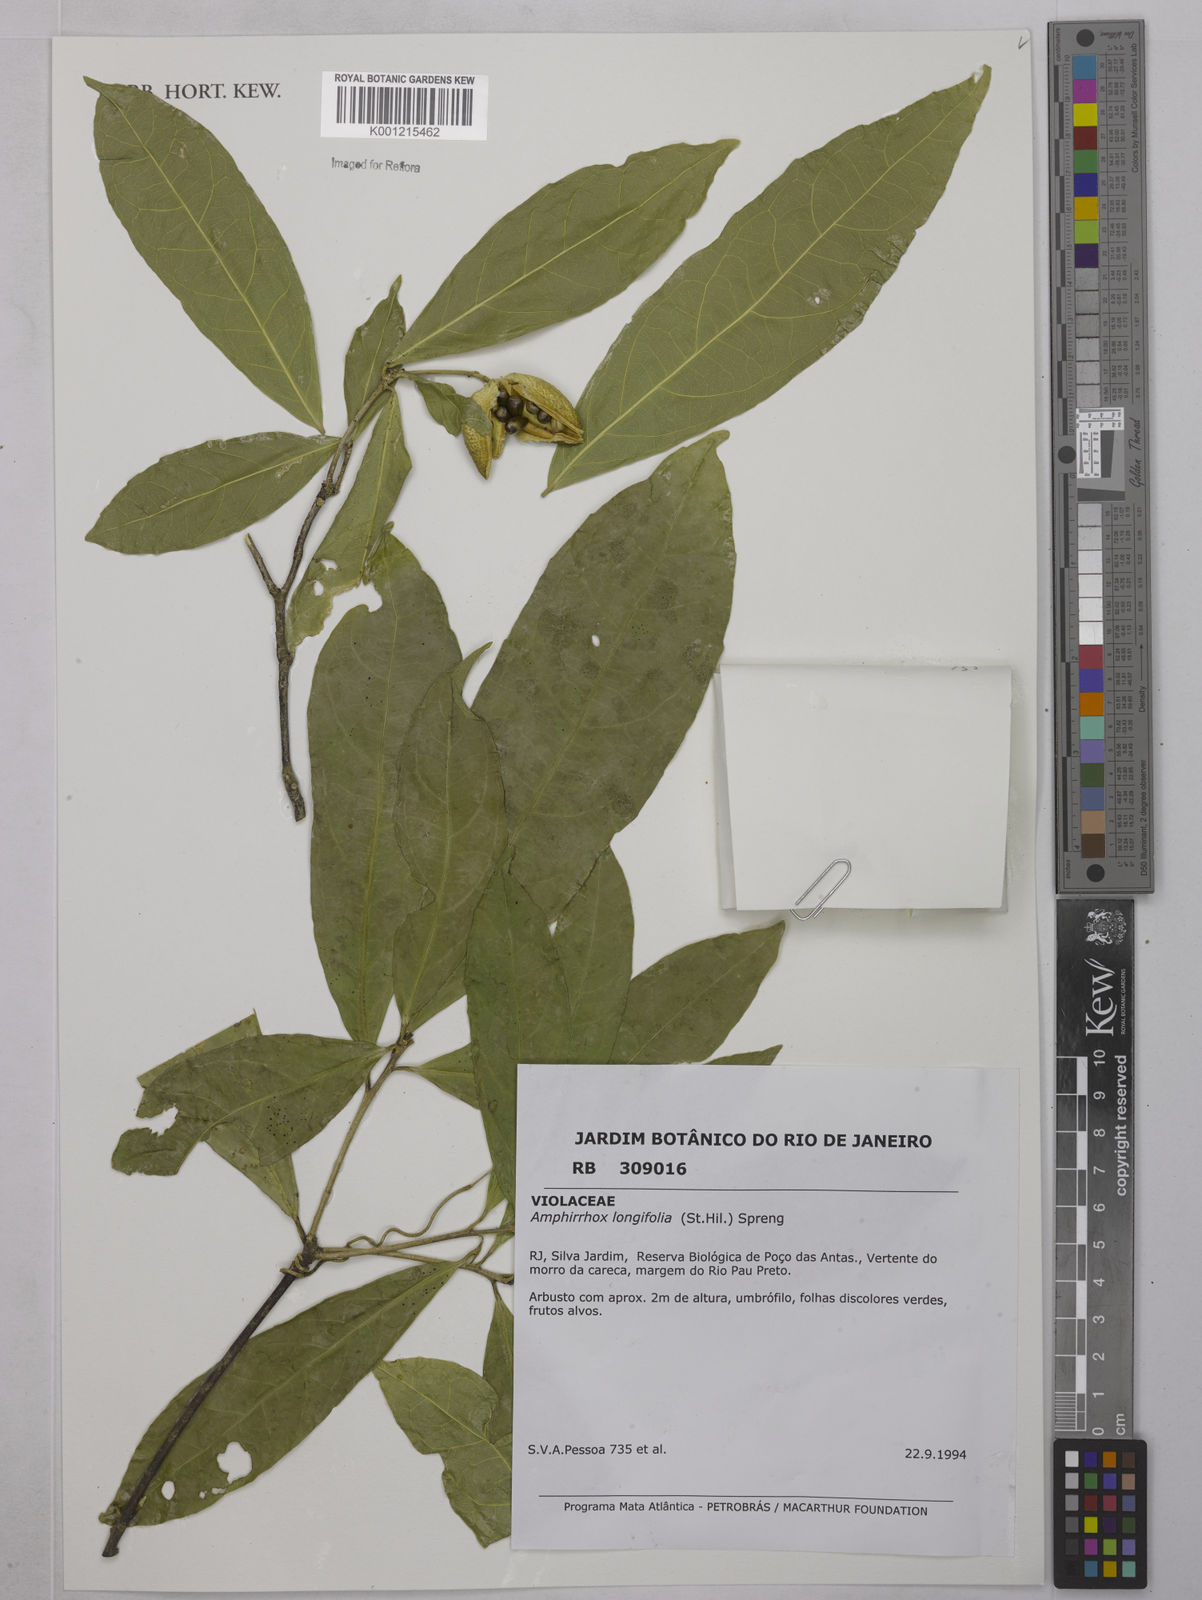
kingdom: Plantae
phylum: Tracheophyta
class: Magnoliopsida
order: Malpighiales
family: Violaceae
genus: Amphirrhox
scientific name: Amphirrhox longifolia
